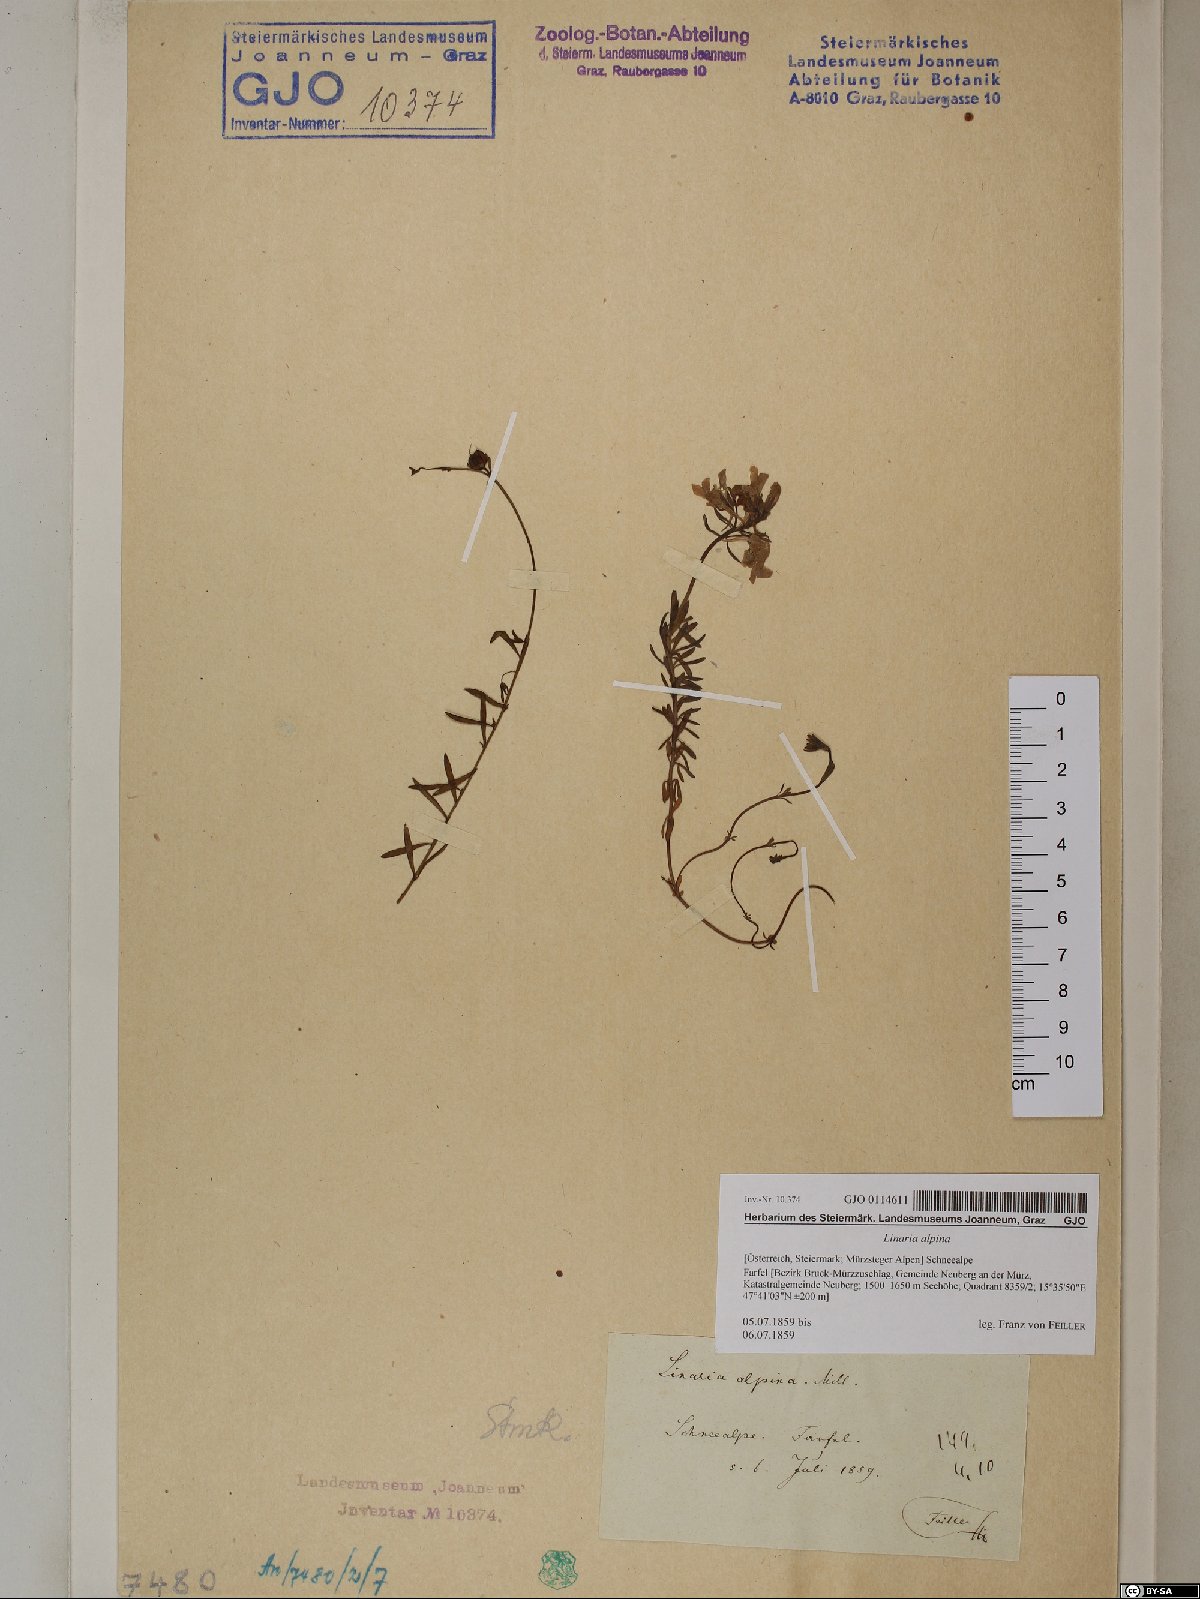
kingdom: Plantae
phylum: Tracheophyta
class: Magnoliopsida
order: Lamiales
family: Plantaginaceae
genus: Linaria
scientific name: Linaria alpina
